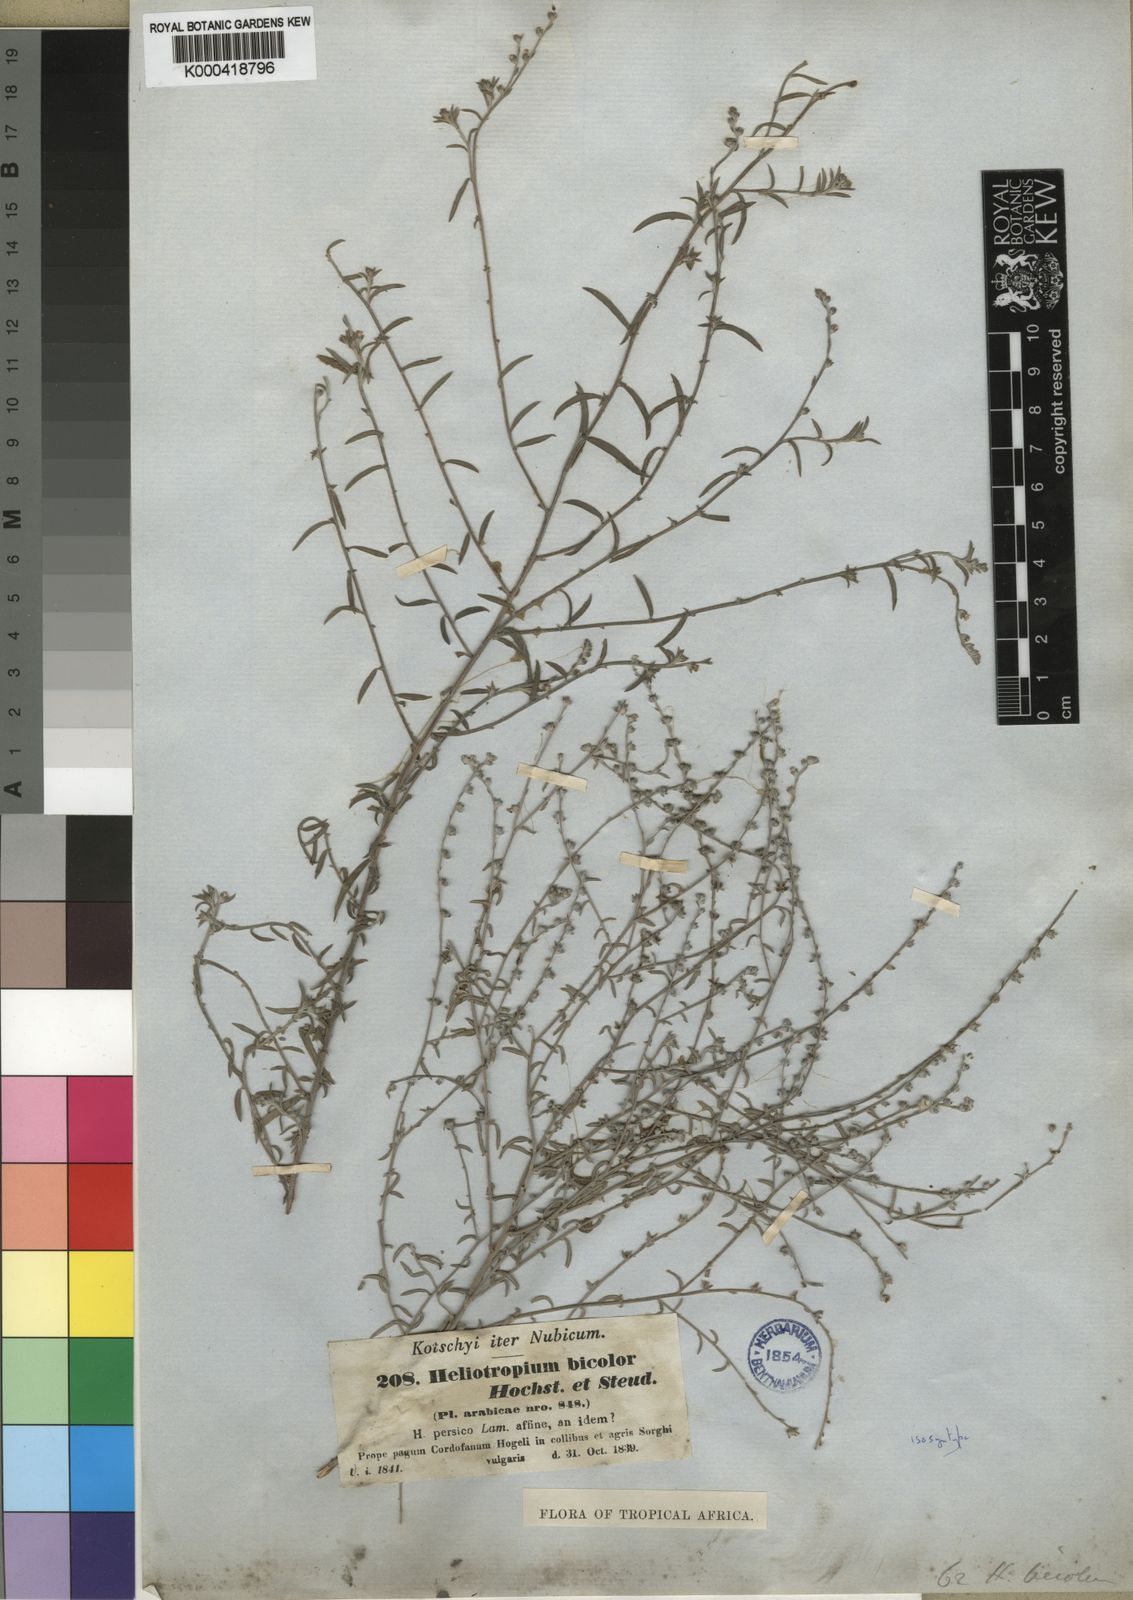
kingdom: Plantae
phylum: Tracheophyta
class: Magnoliopsida
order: Boraginales
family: Heliotropiaceae
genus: Euploca
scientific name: Euploca strigosa
